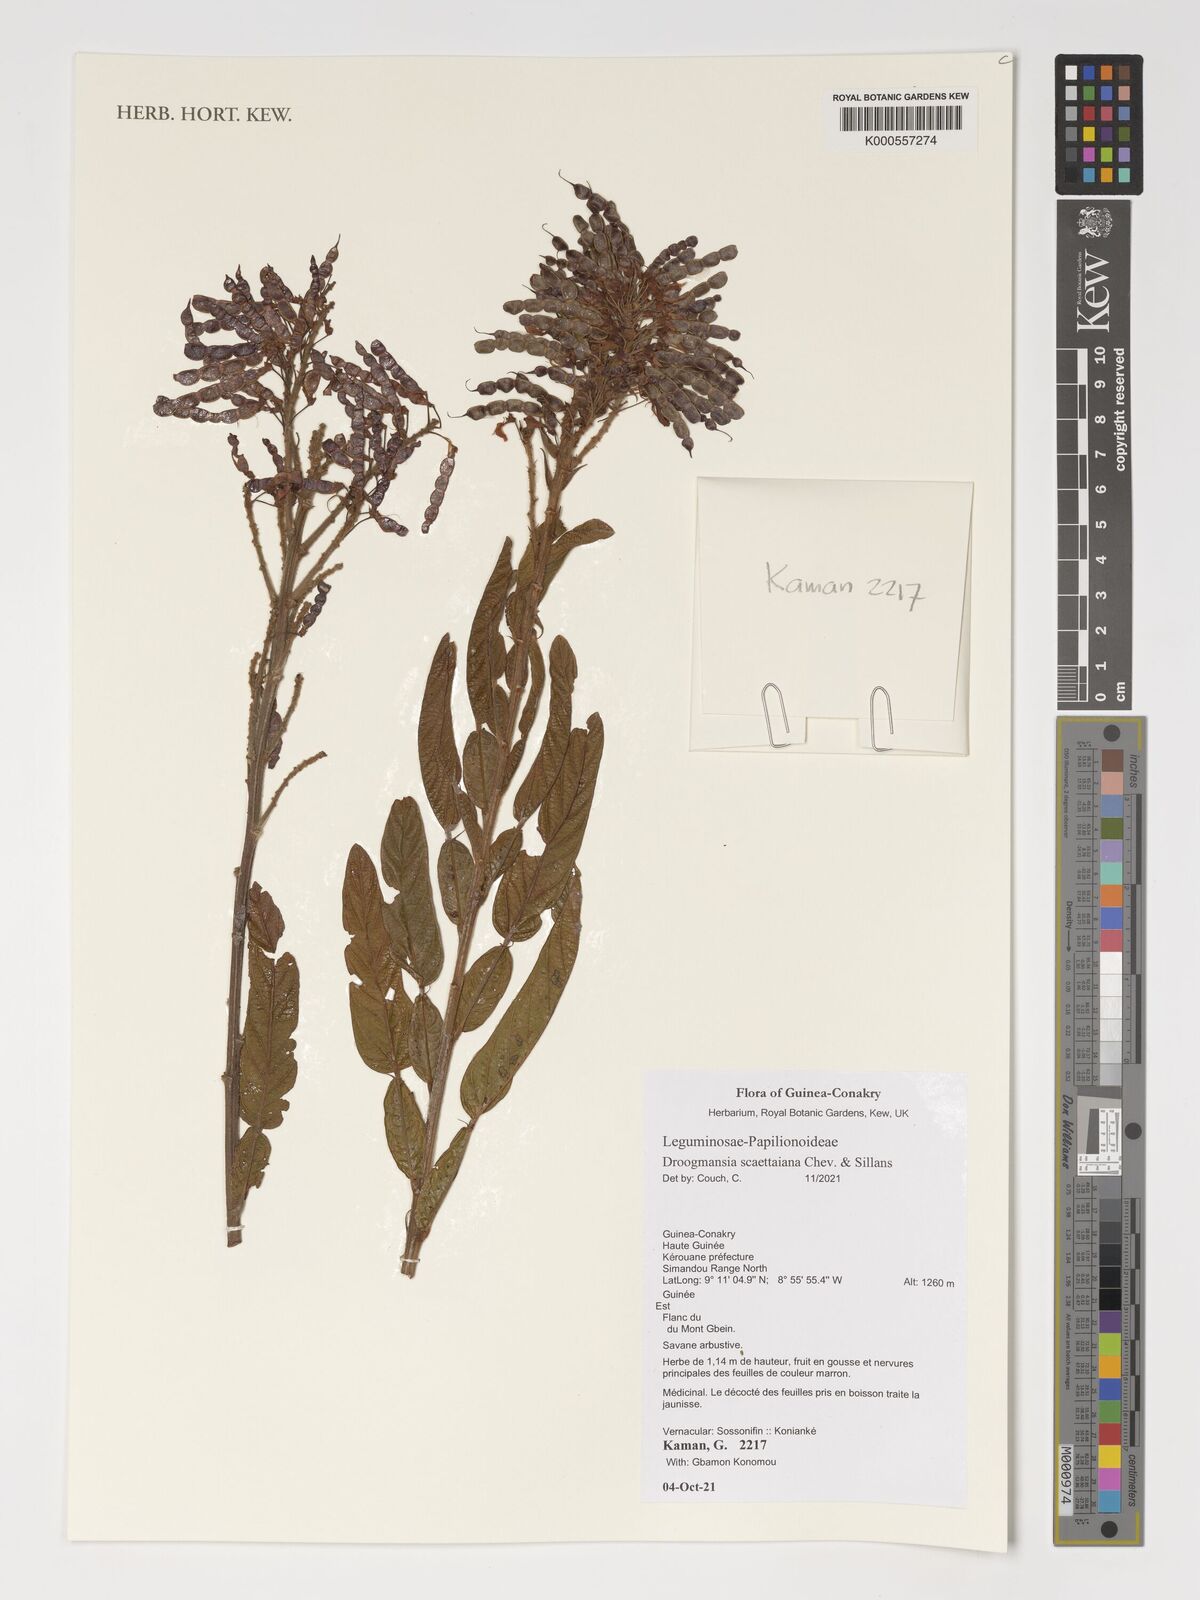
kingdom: Plantae
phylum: Tracheophyta
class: Magnoliopsida
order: Fabales
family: Fabaceae
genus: Droogmansia
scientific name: Droogmansia scaettaiana
